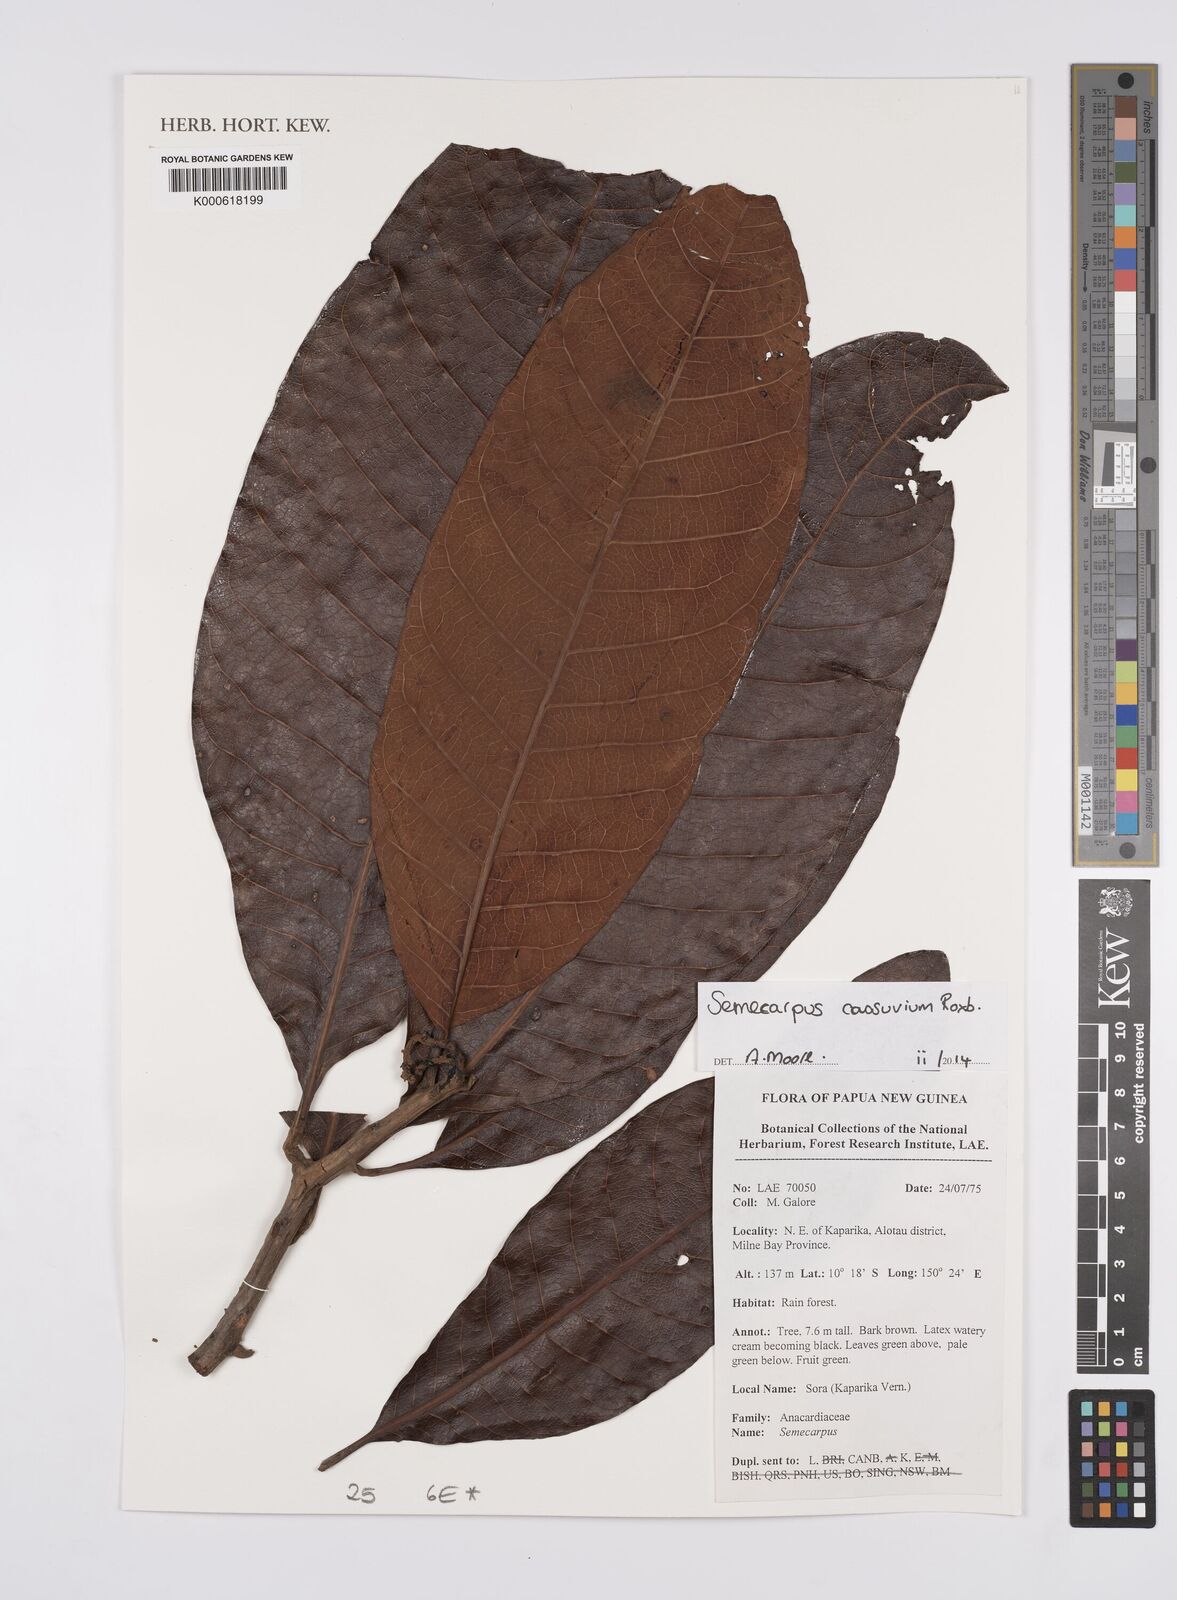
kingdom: Plantae
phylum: Tracheophyta
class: Magnoliopsida
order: Sapindales
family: Anacardiaceae
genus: Semecarpus
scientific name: Semecarpus cassuvium
